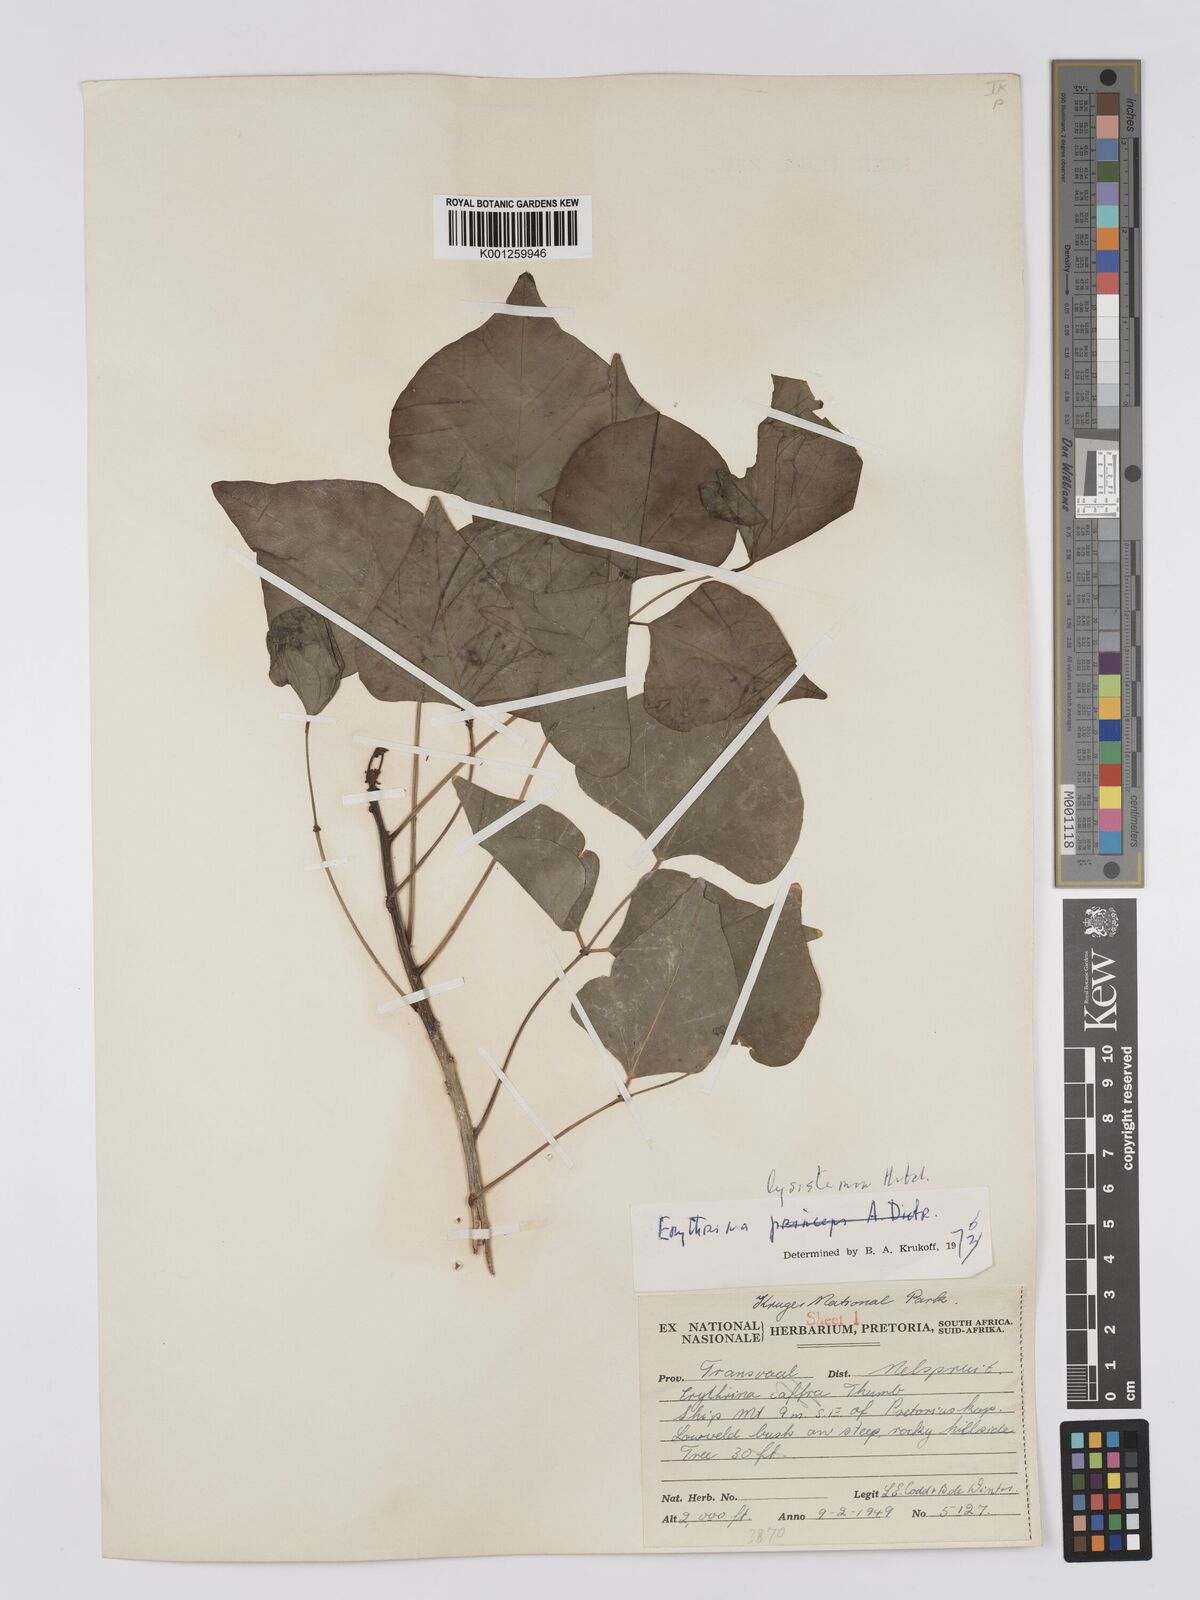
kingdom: Plantae
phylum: Tracheophyta
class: Magnoliopsida
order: Fabales
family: Fabaceae
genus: Erythrina
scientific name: Erythrina lysistemon
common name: Common coral tree
